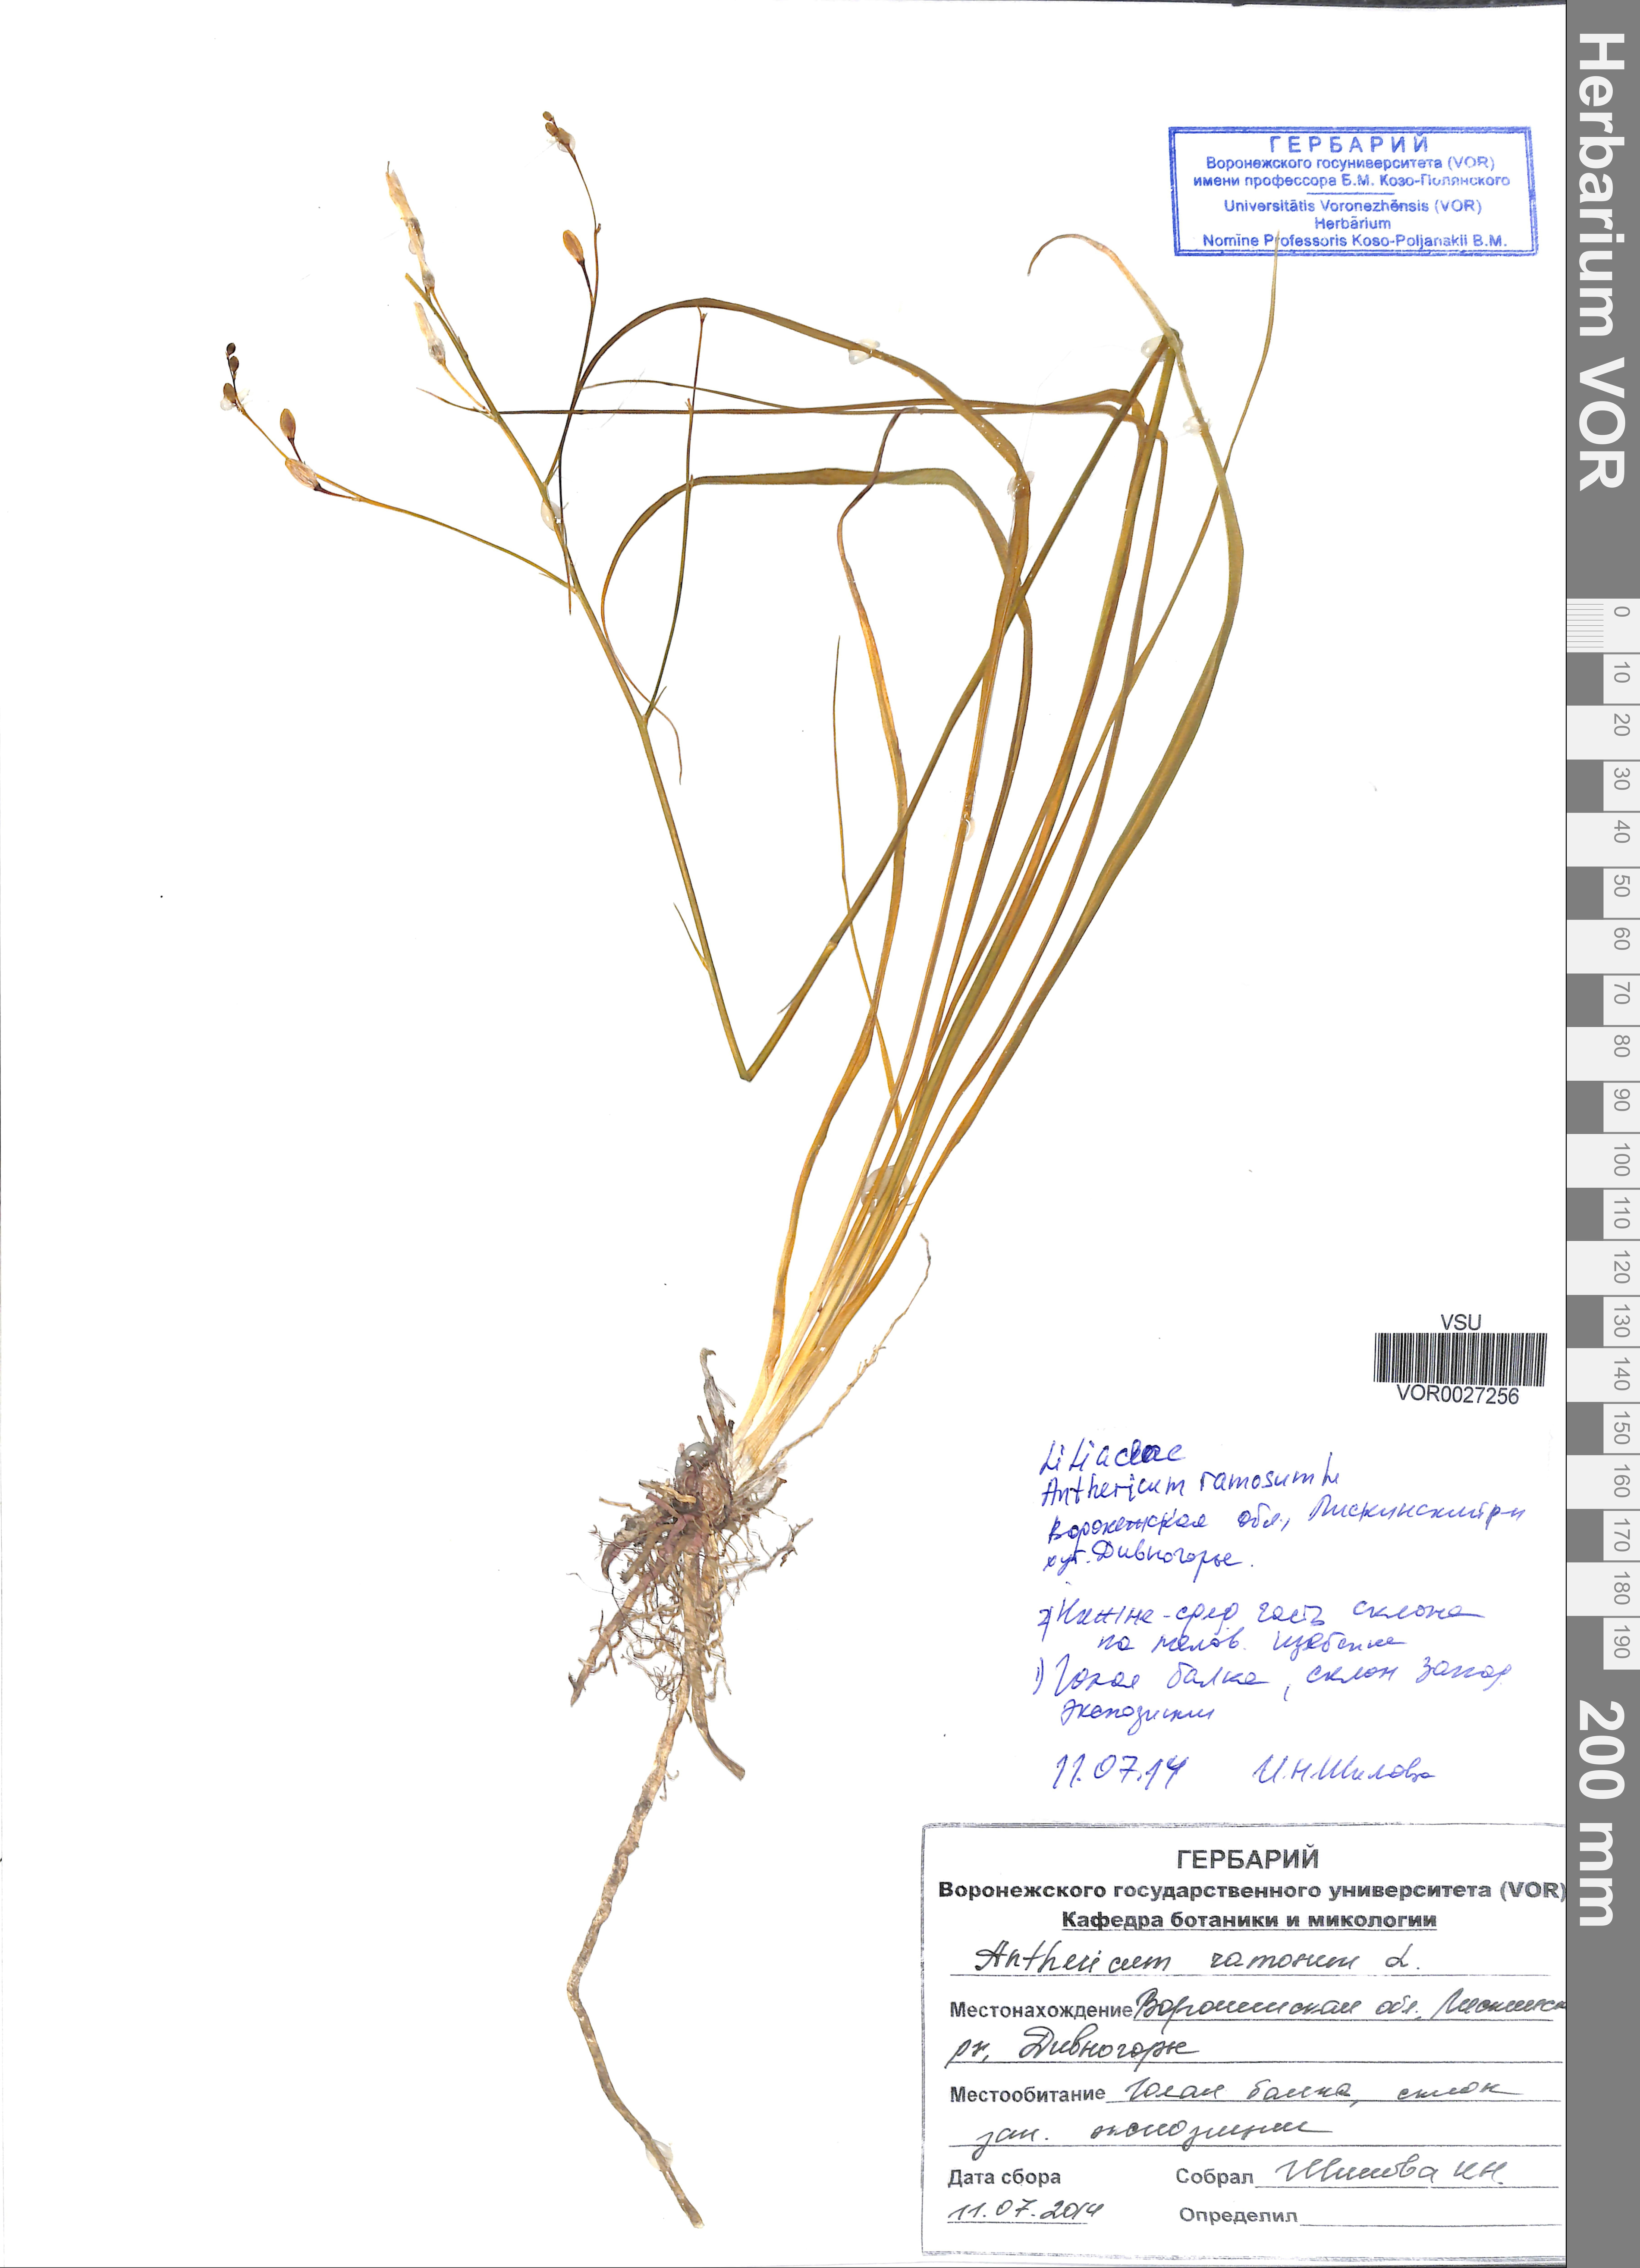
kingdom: Plantae
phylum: Tracheophyta
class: Liliopsida
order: Asparagales
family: Asparagaceae
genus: Anthericum
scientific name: Anthericum ramosum
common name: Branched st. bernard's-lily
